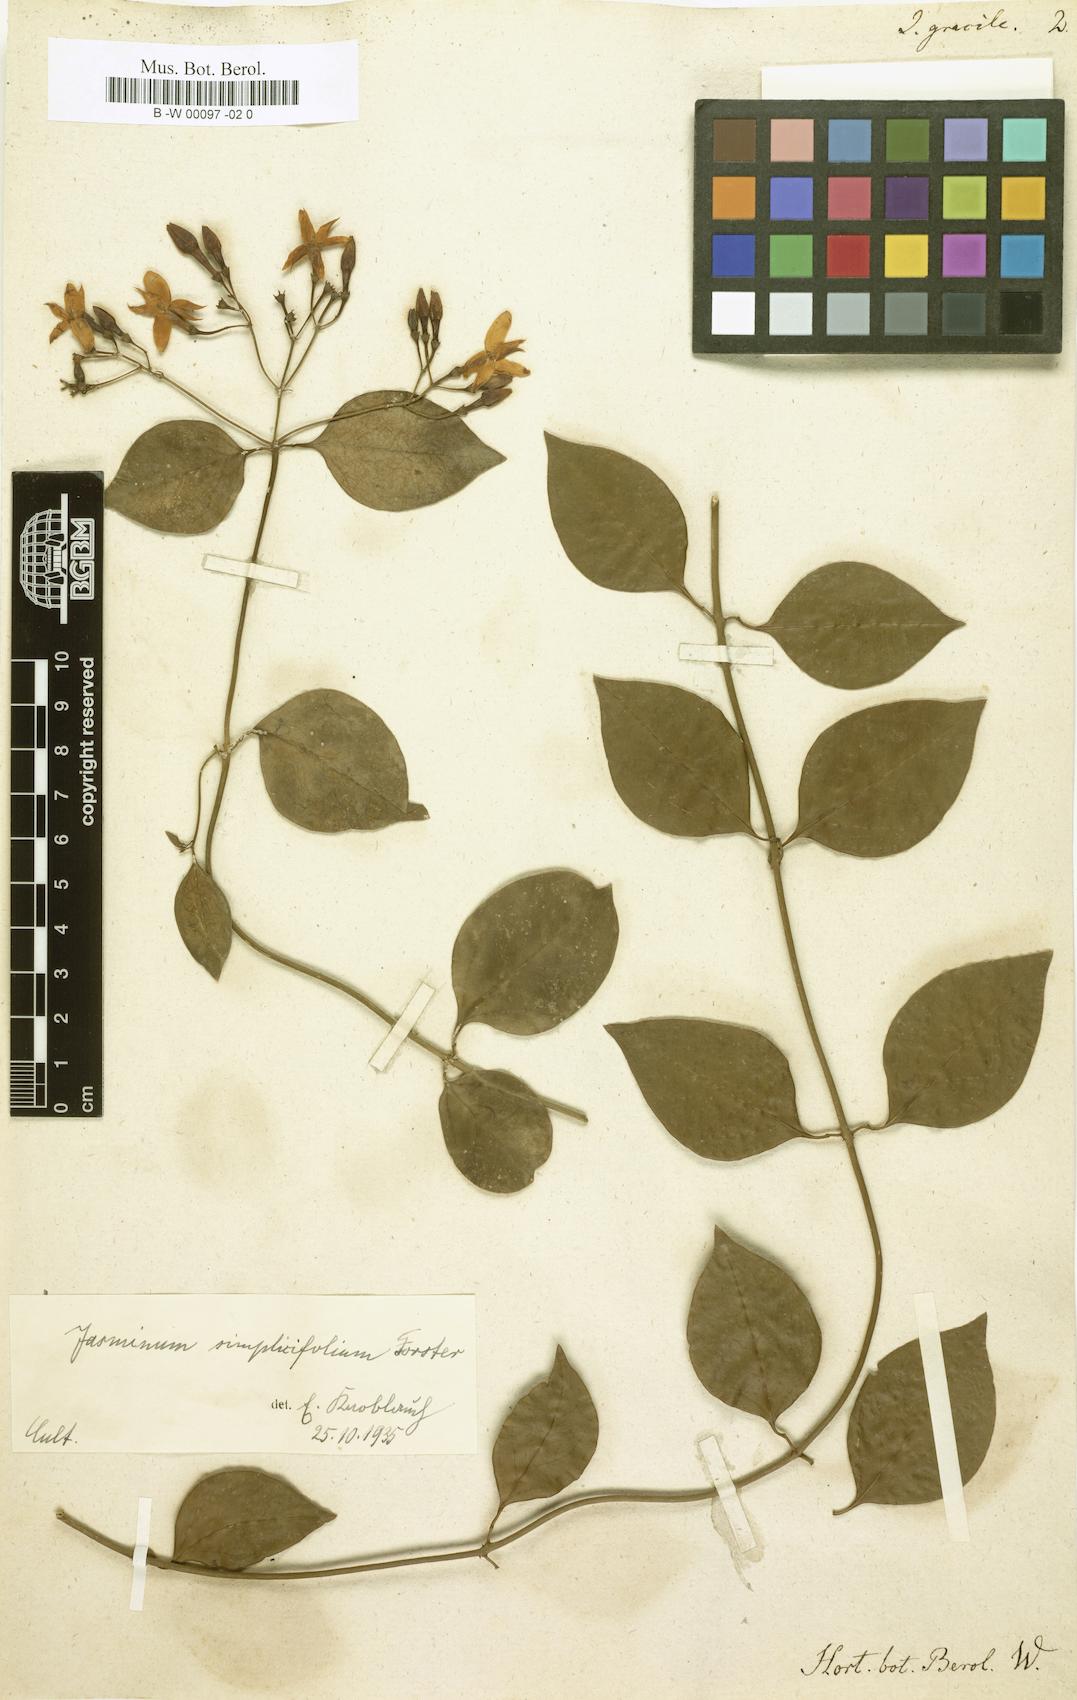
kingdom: Plantae
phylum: Tracheophyta
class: Magnoliopsida
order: Lamiales
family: Oleaceae
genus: Jasminum
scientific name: Jasminum simplicifolium
